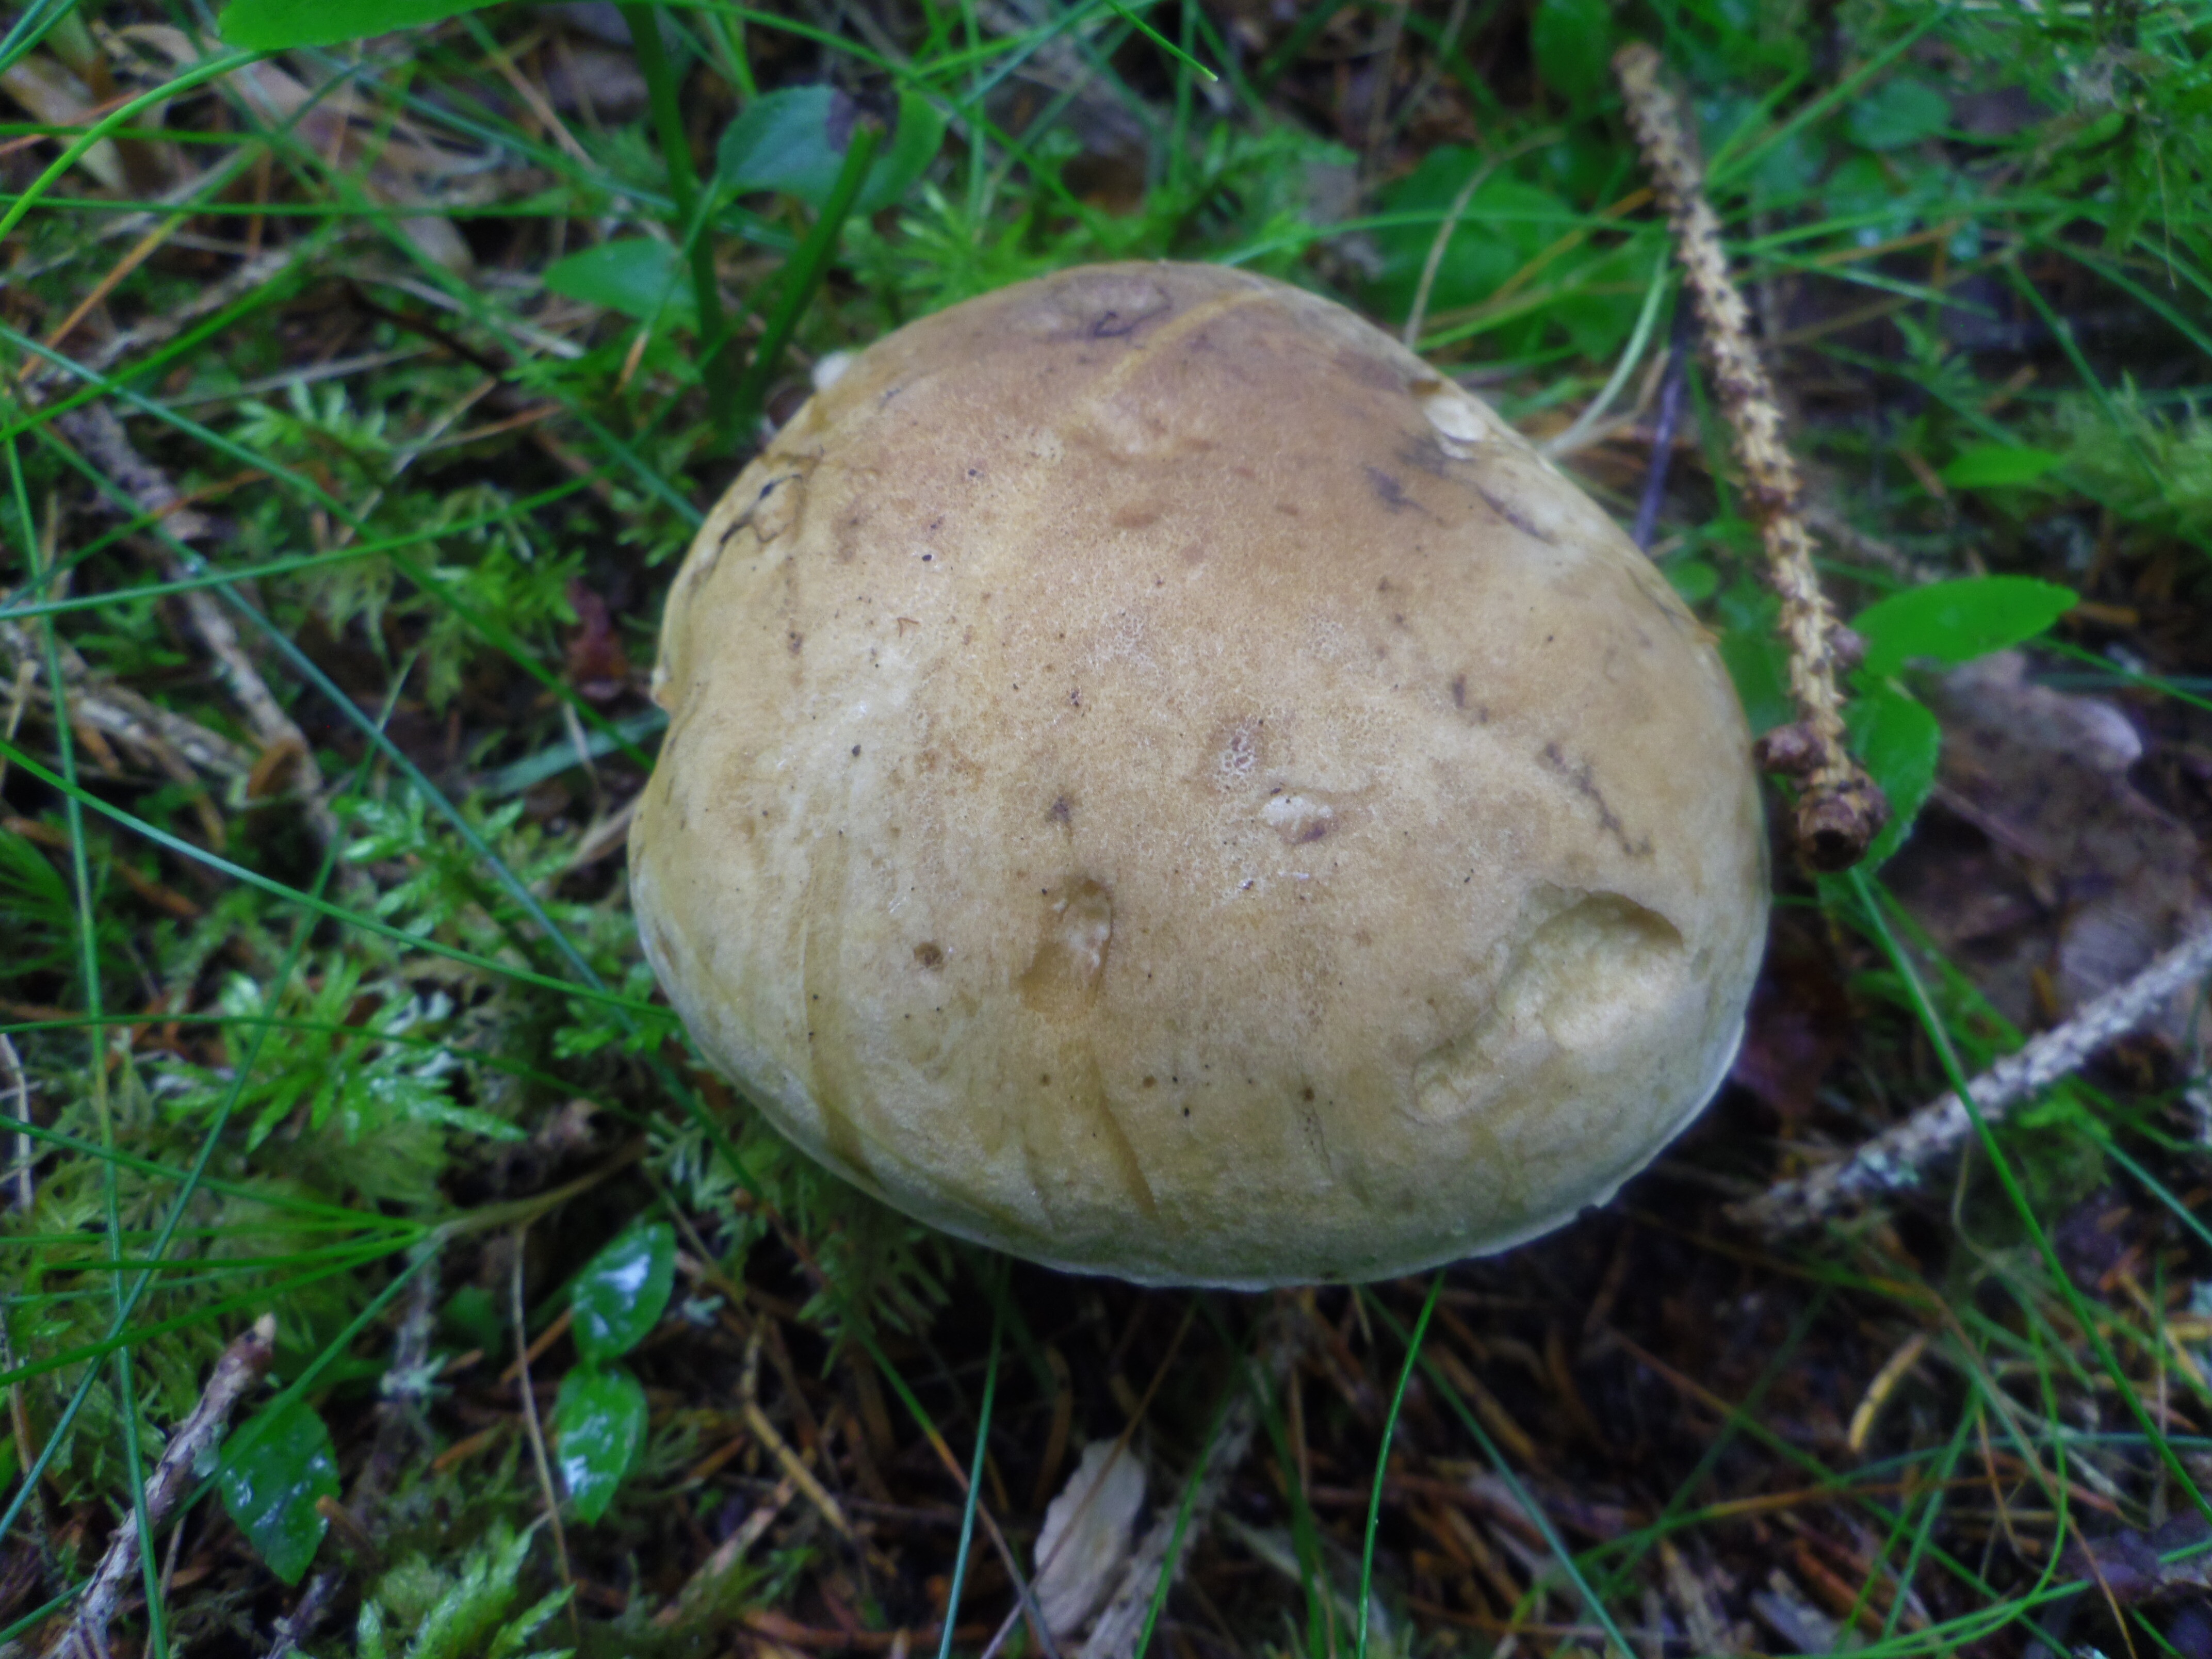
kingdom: Fungi
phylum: Basidiomycota
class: Agaricomycetes
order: Boletales
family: Boletaceae
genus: Tylopilus
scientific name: Tylopilus felleus
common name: Bitter bolete
